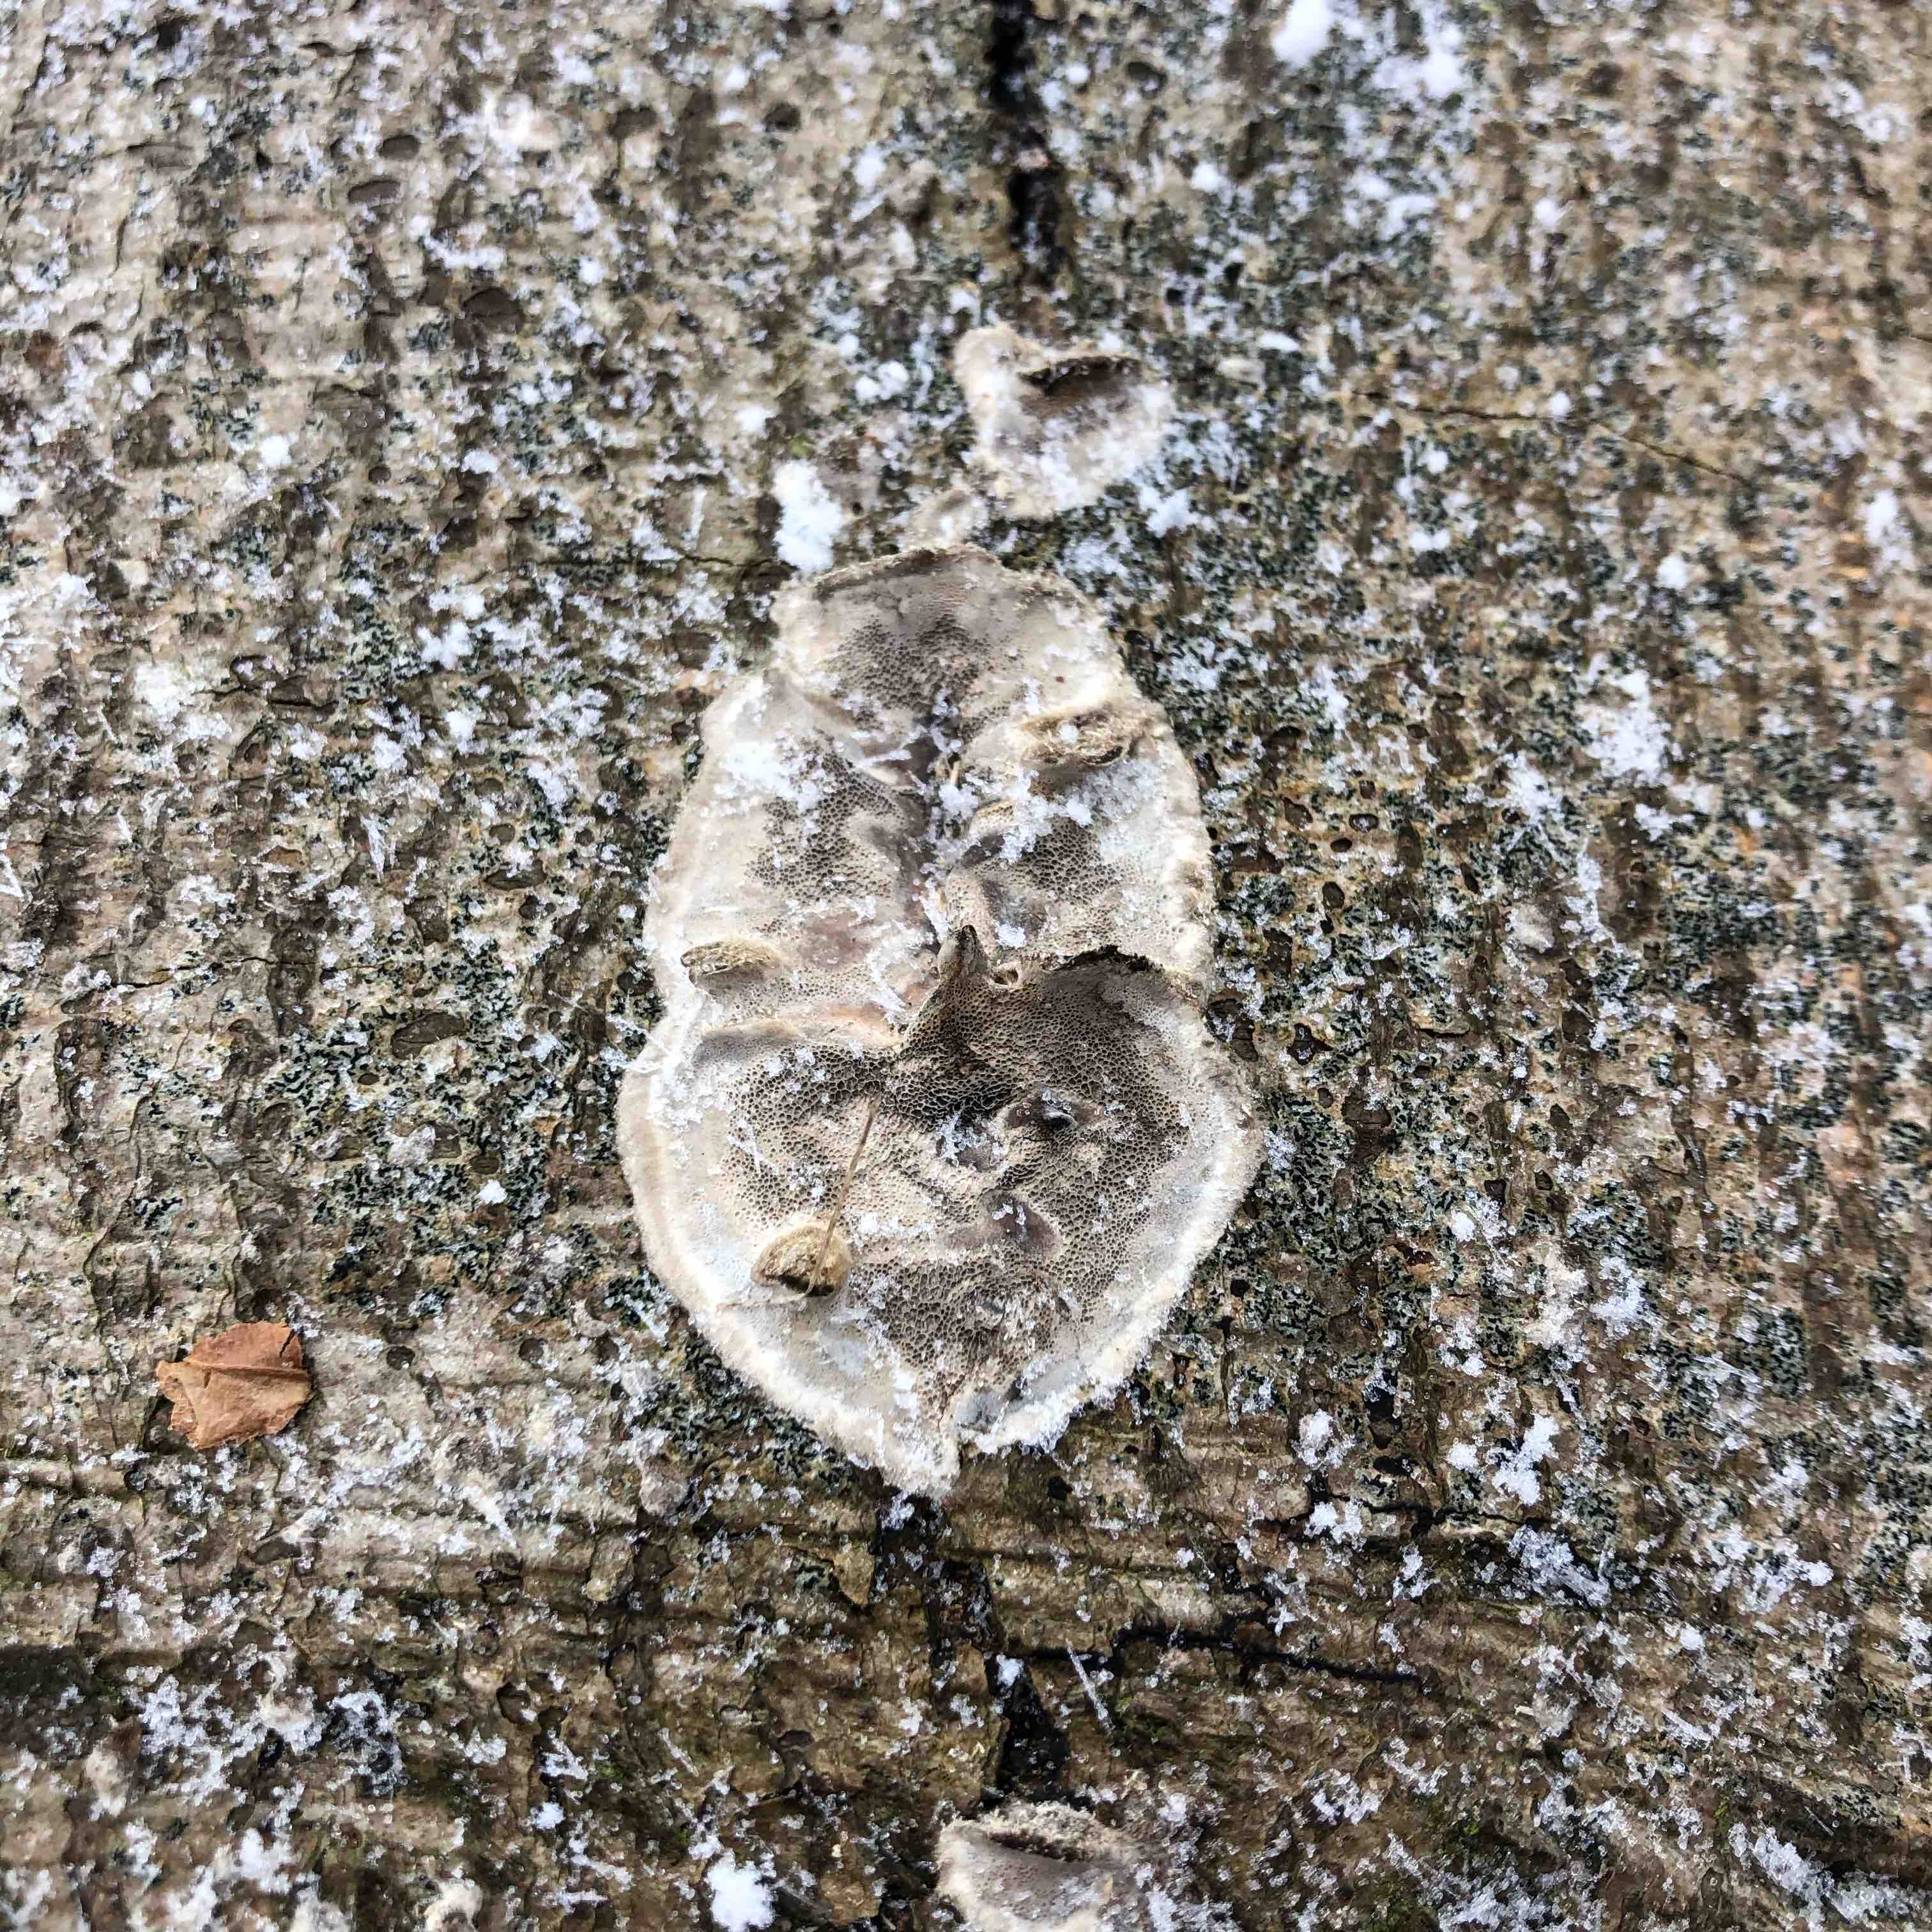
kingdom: Fungi
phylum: Basidiomycota
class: Agaricomycetes
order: Polyporales
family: Phanerochaetaceae
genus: Bjerkandera
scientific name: Bjerkandera adusta
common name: sveden sodporesvamp
